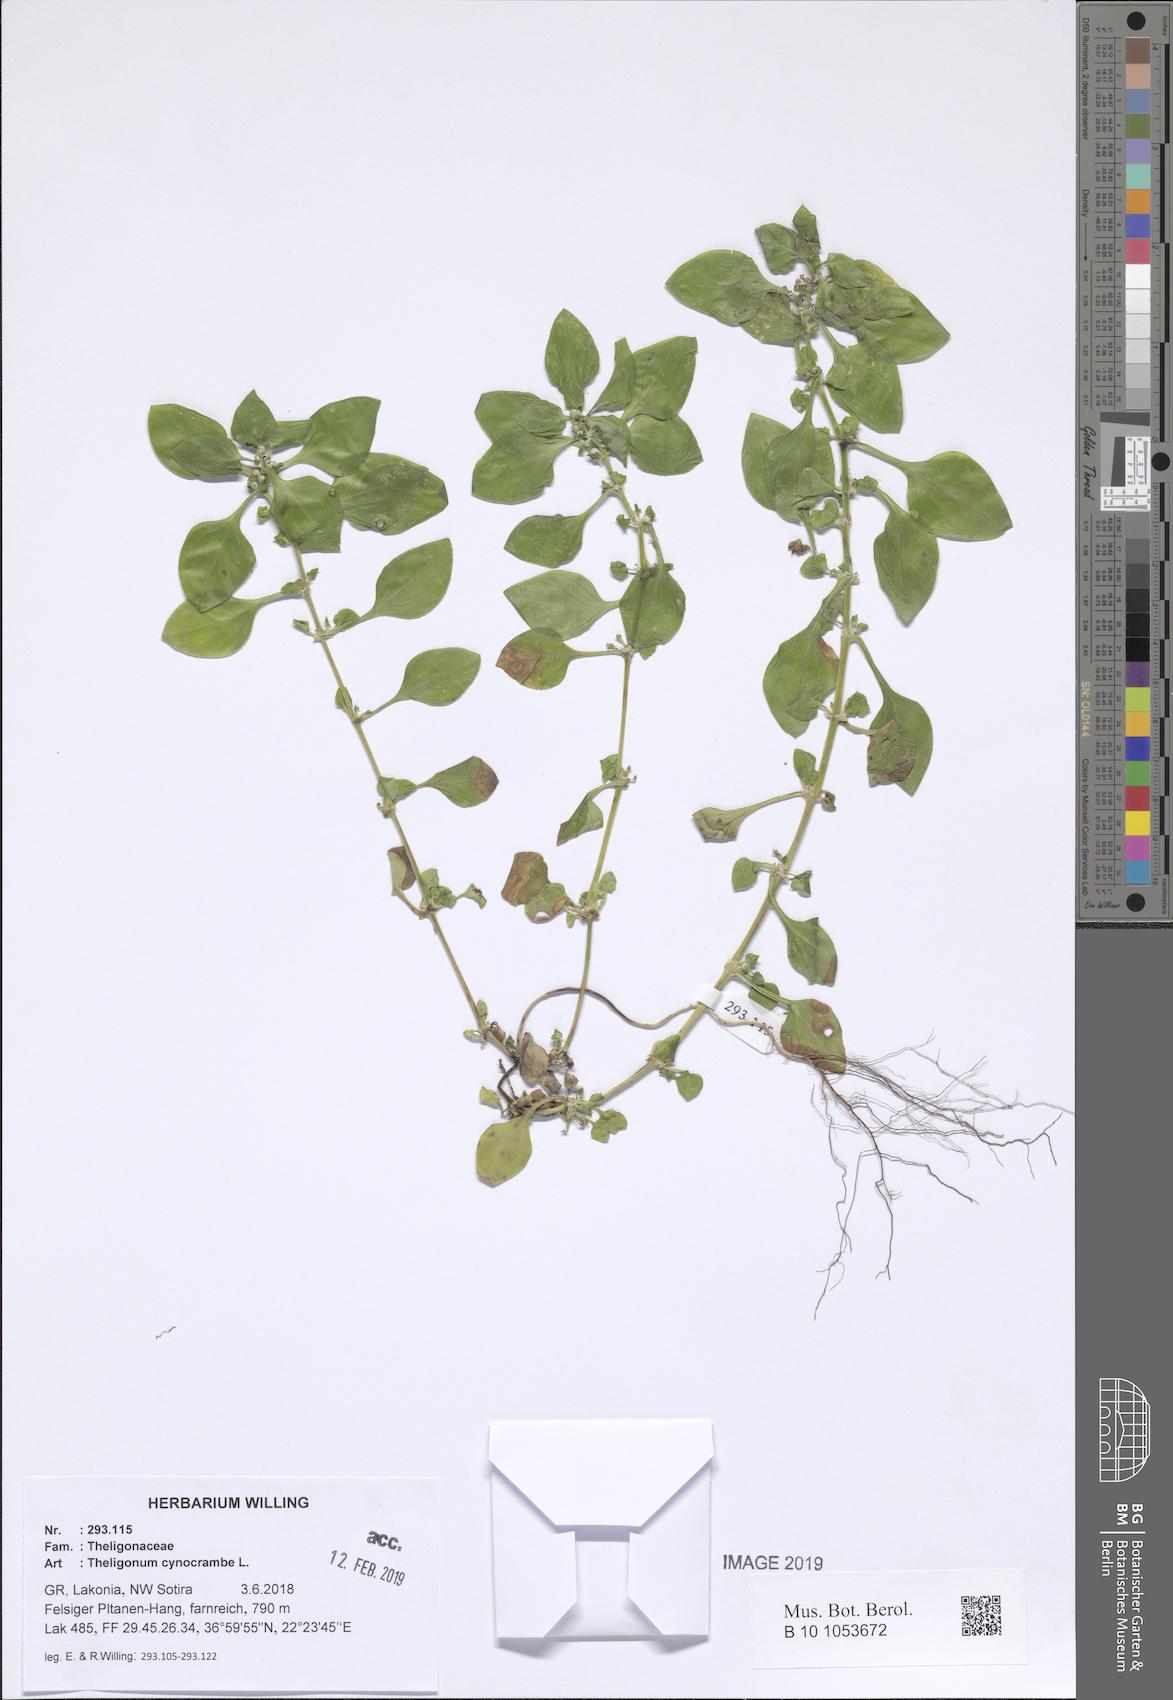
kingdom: Plantae
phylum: Tracheophyta
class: Magnoliopsida
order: Gentianales
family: Rubiaceae
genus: Theligonum
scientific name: Theligonum cynocrambe
